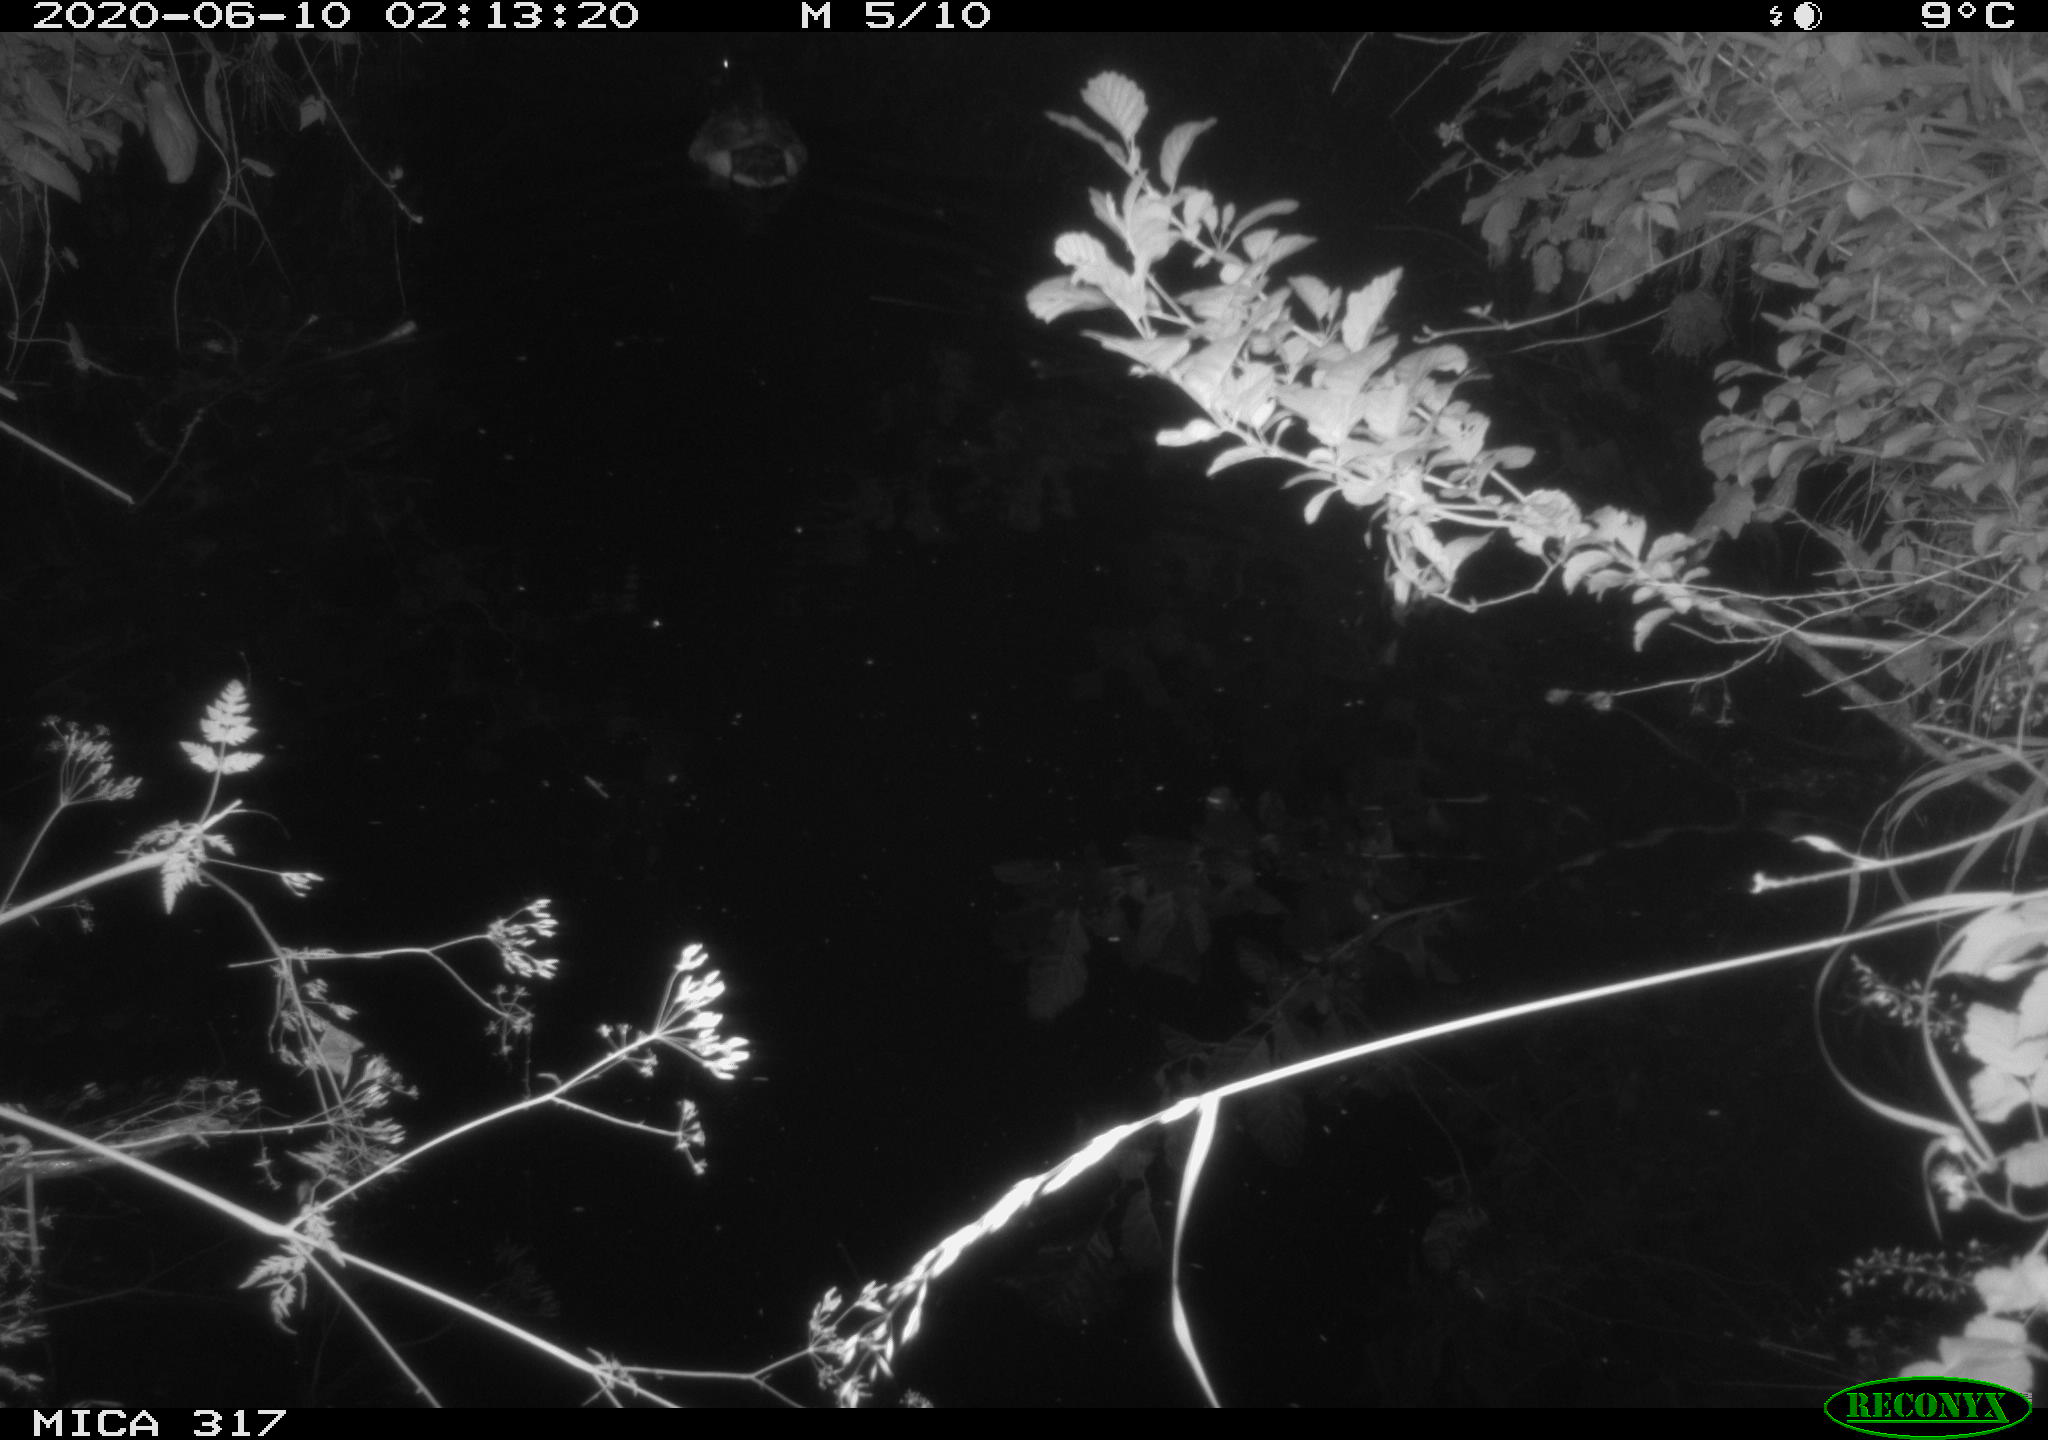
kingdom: Animalia
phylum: Chordata
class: Aves
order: Anseriformes
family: Anatidae
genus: Anas
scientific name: Anas platyrhynchos
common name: Mallard
